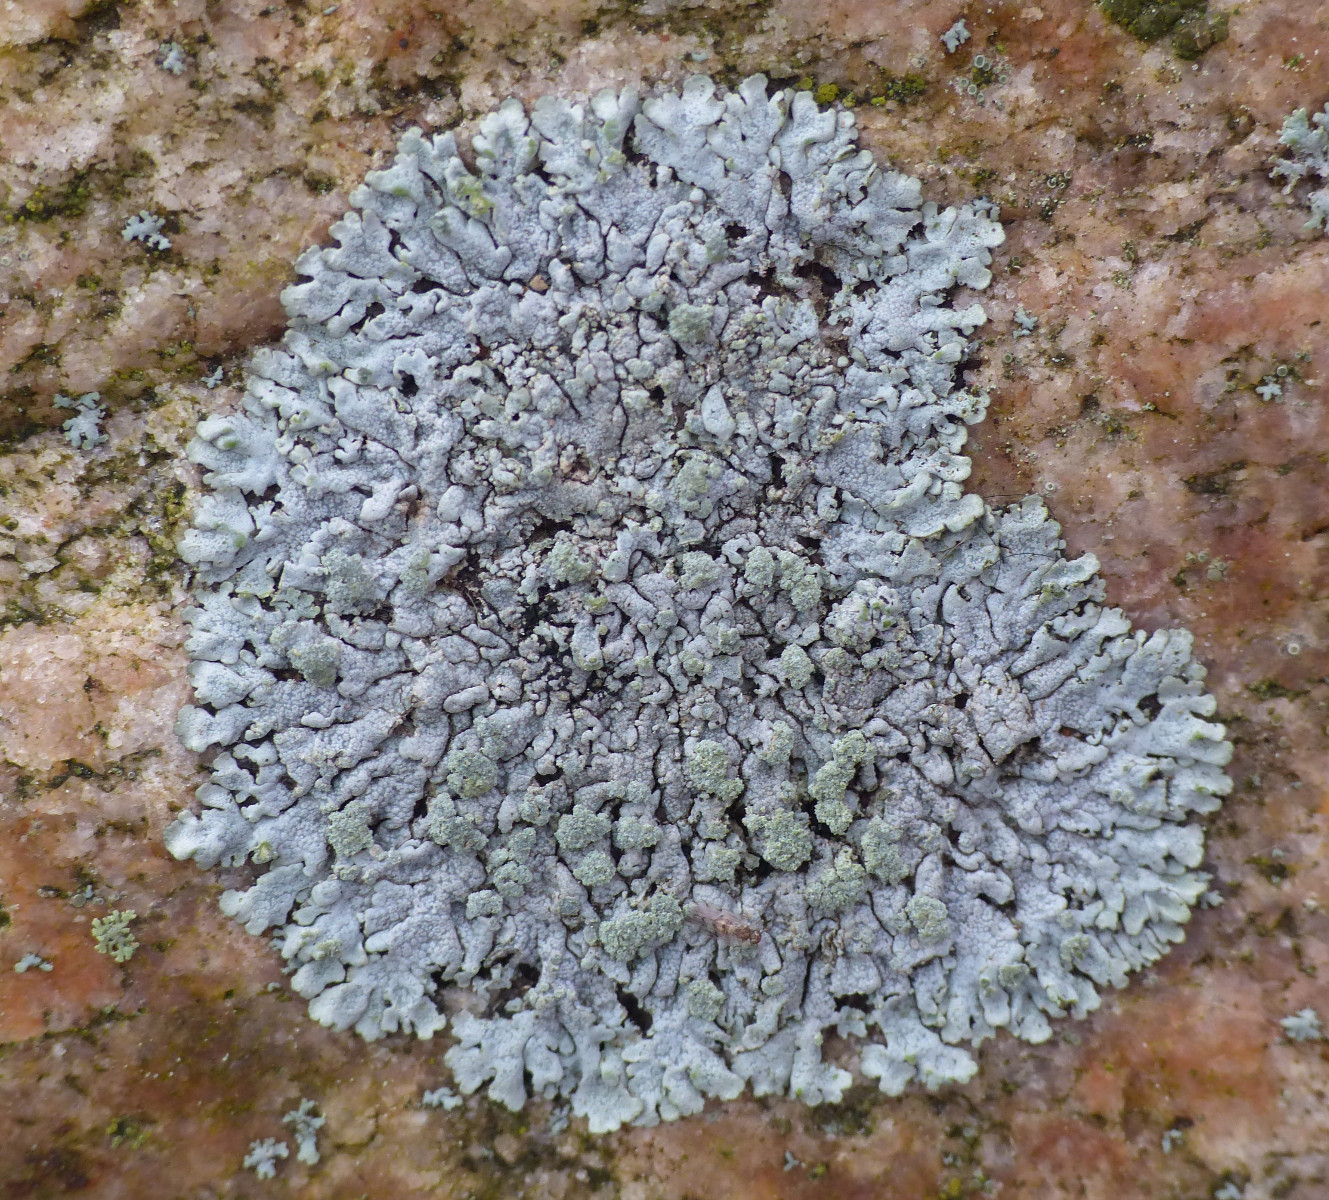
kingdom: Fungi
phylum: Ascomycota
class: Lecanoromycetes
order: Caliciales
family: Physciaceae
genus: Physcia
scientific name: Physcia caesia
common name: blågrå rosetlav
